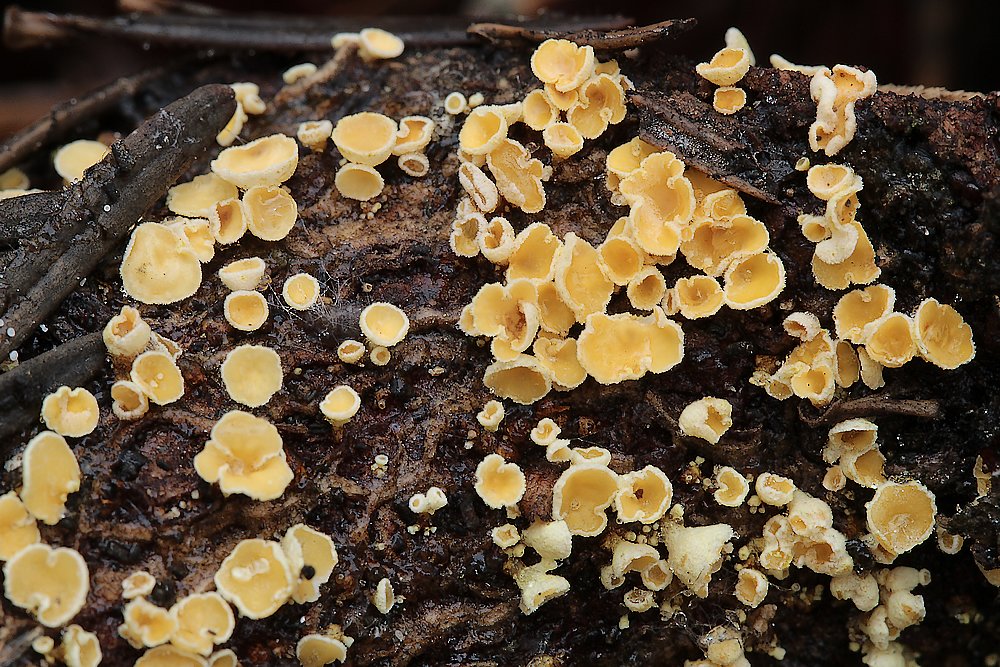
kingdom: Fungi
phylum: Ascomycota
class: Leotiomycetes
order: Helotiales
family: Lachnaceae
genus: Lachnellula
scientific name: Lachnellula
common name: frynseskive
